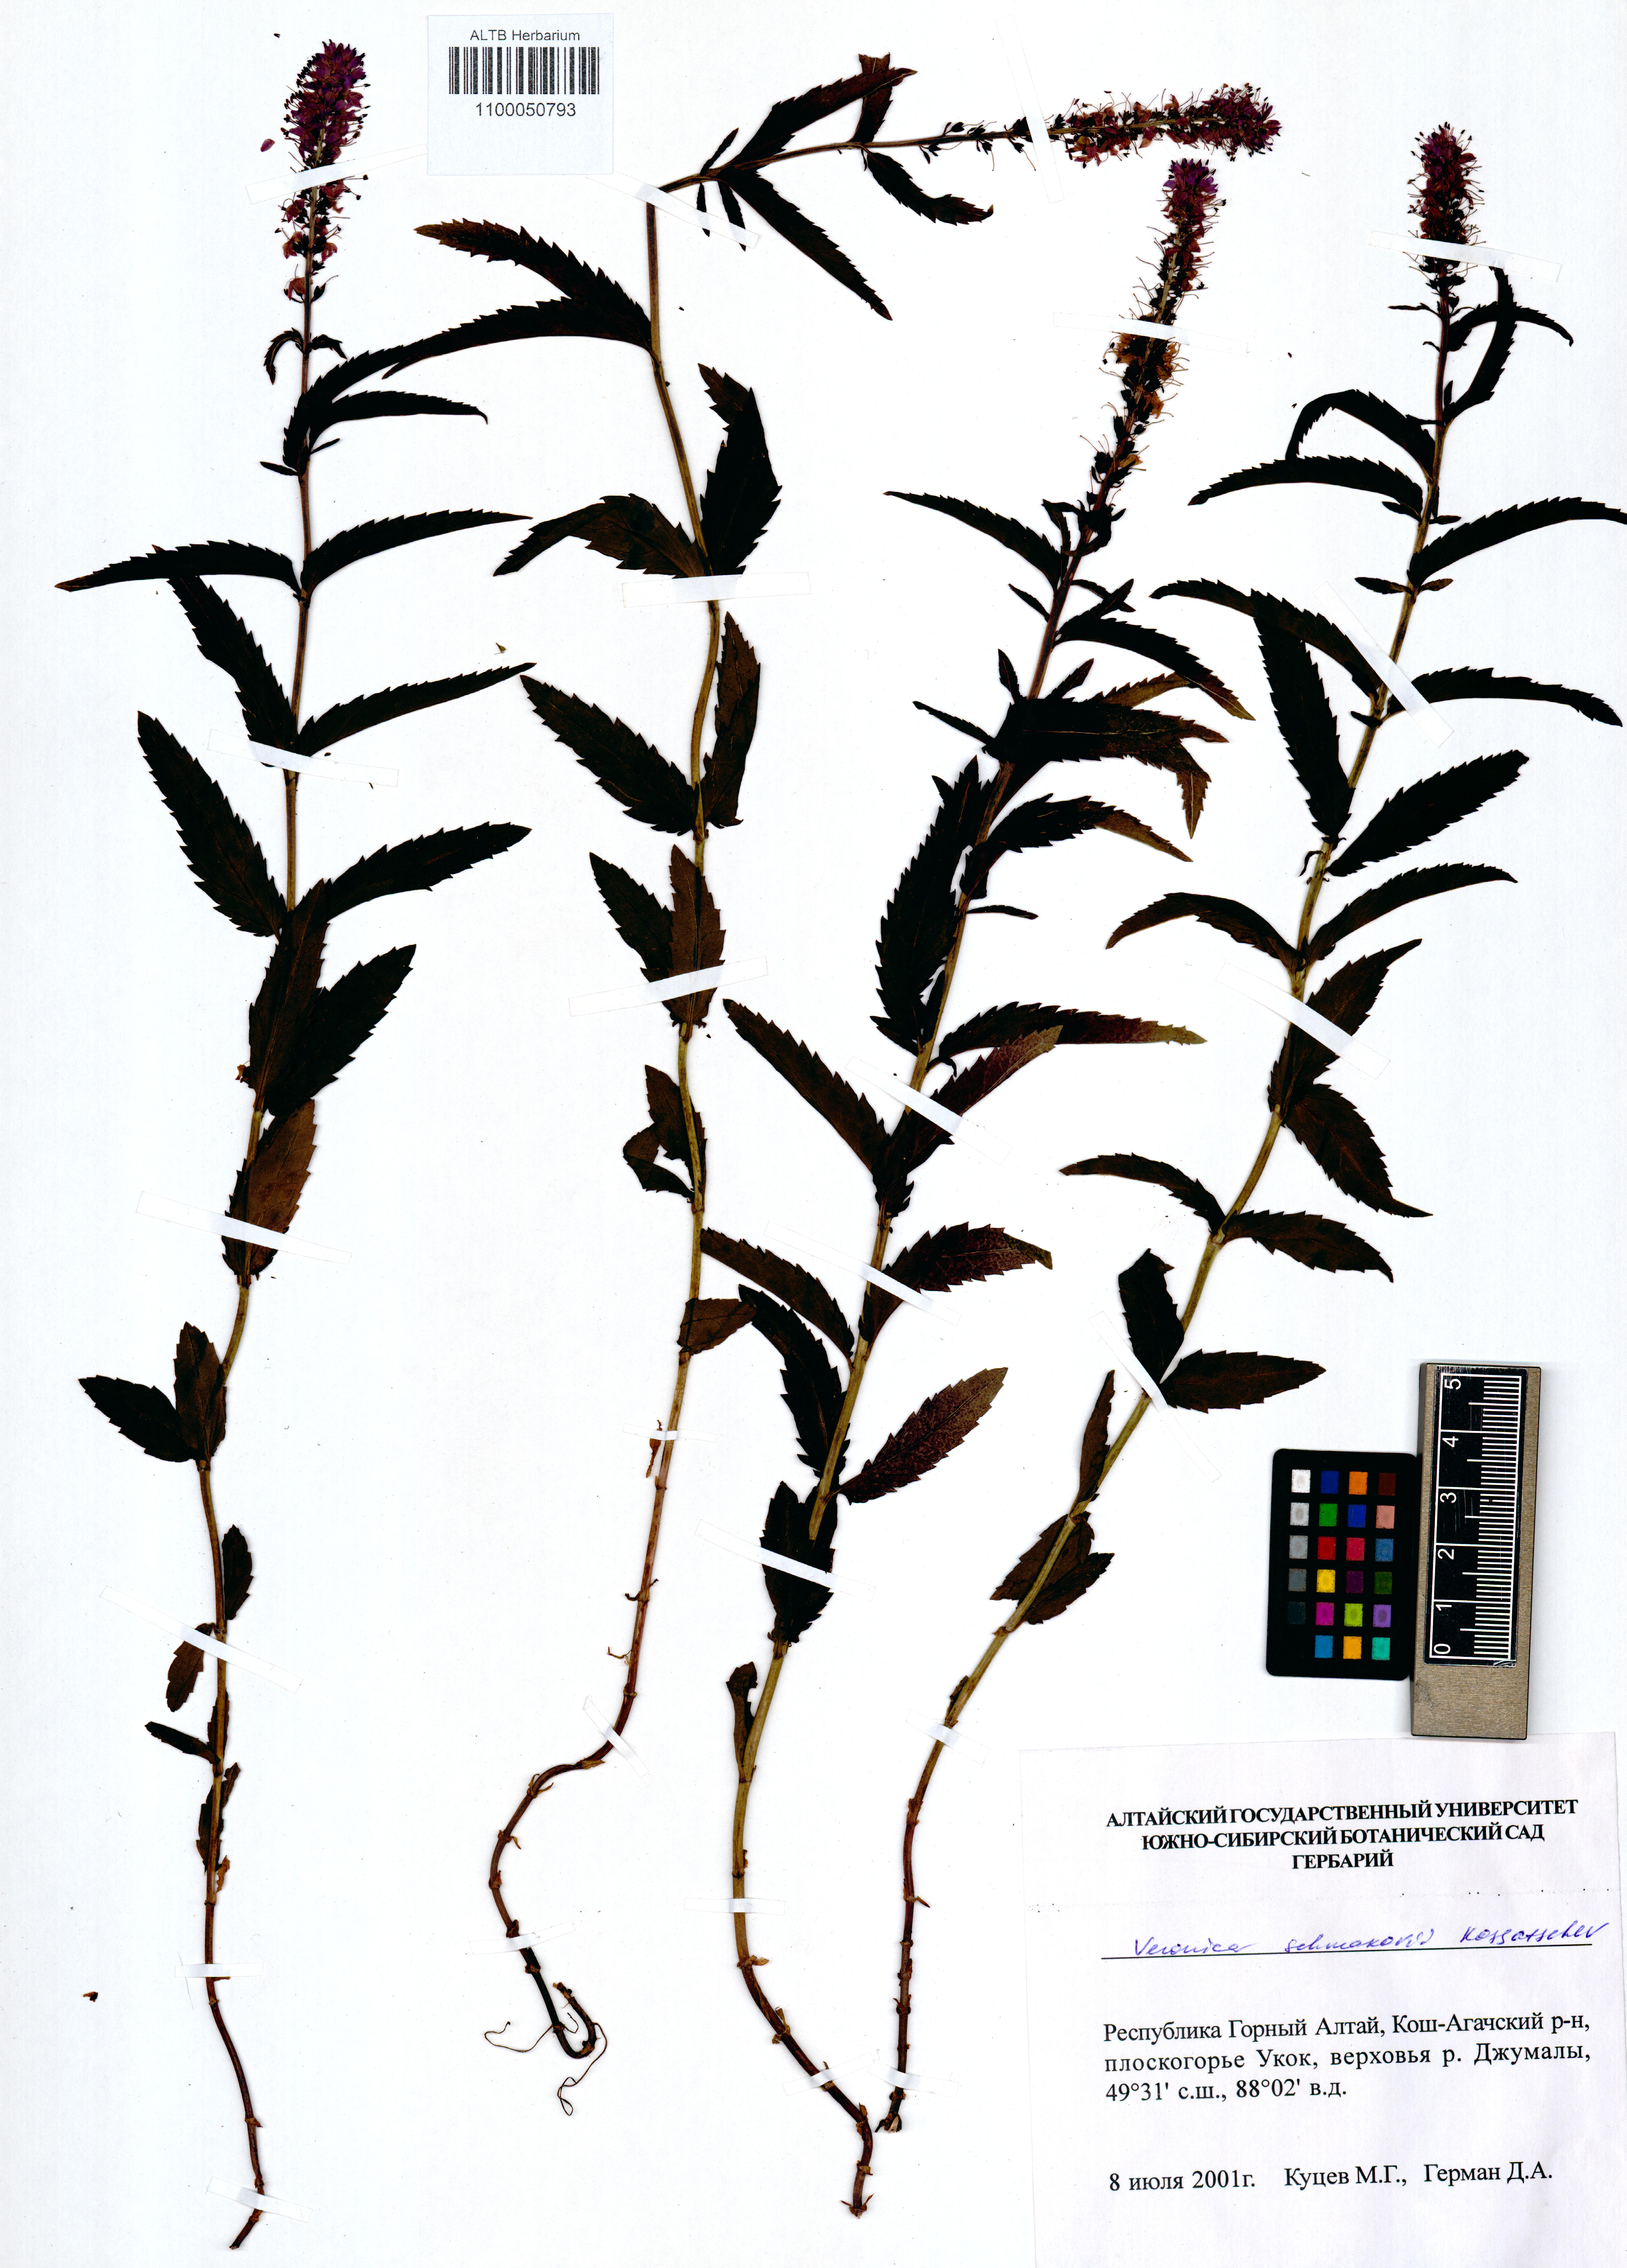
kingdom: Plantae
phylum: Tracheophyta
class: Magnoliopsida
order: Lamiales
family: Plantaginaceae
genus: Veronica
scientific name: Veronica schmakovii
